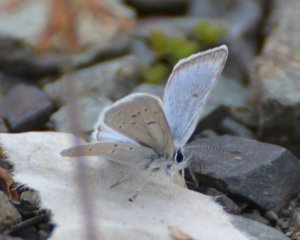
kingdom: Animalia
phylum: Arthropoda
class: Insecta
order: Lepidoptera
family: Lycaenidae
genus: Plebejus
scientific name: Plebejus saepiolus
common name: Greenish Blue
